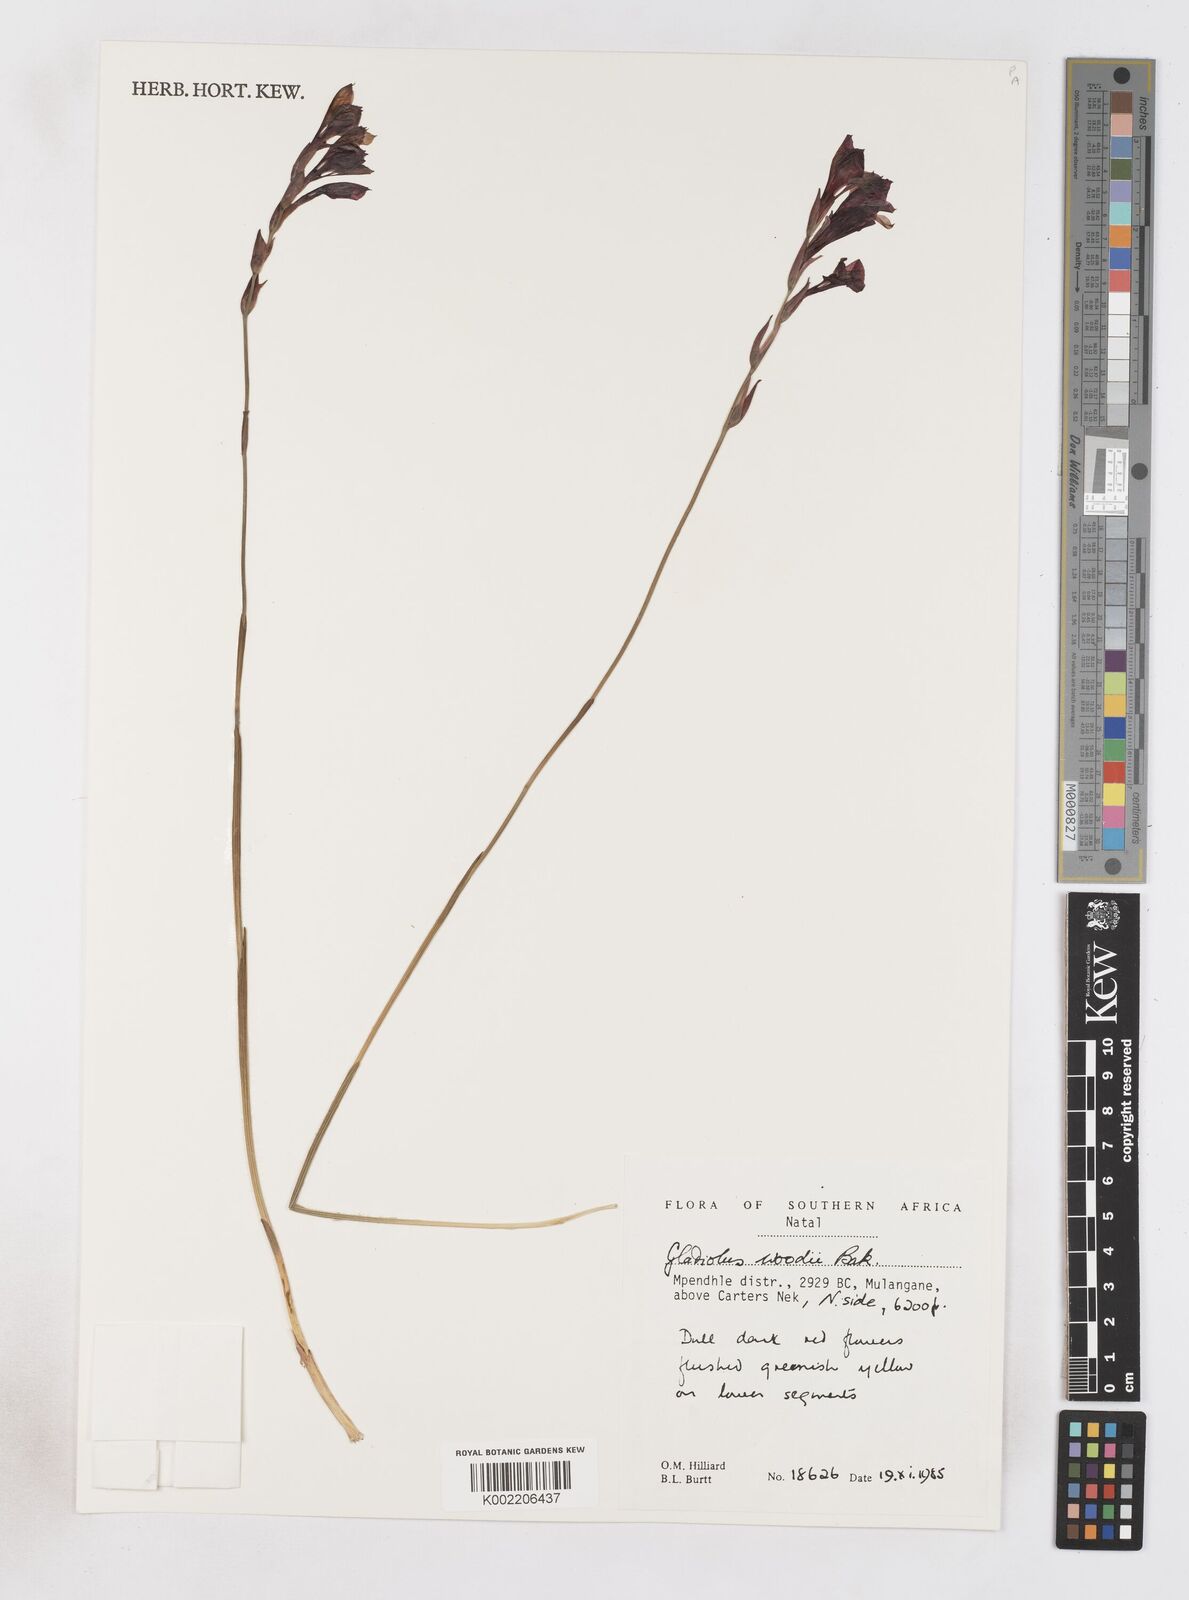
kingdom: Plantae
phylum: Tracheophyta
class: Liliopsida
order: Asparagales
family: Iridaceae
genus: Gladiolus
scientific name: Gladiolus woodii
